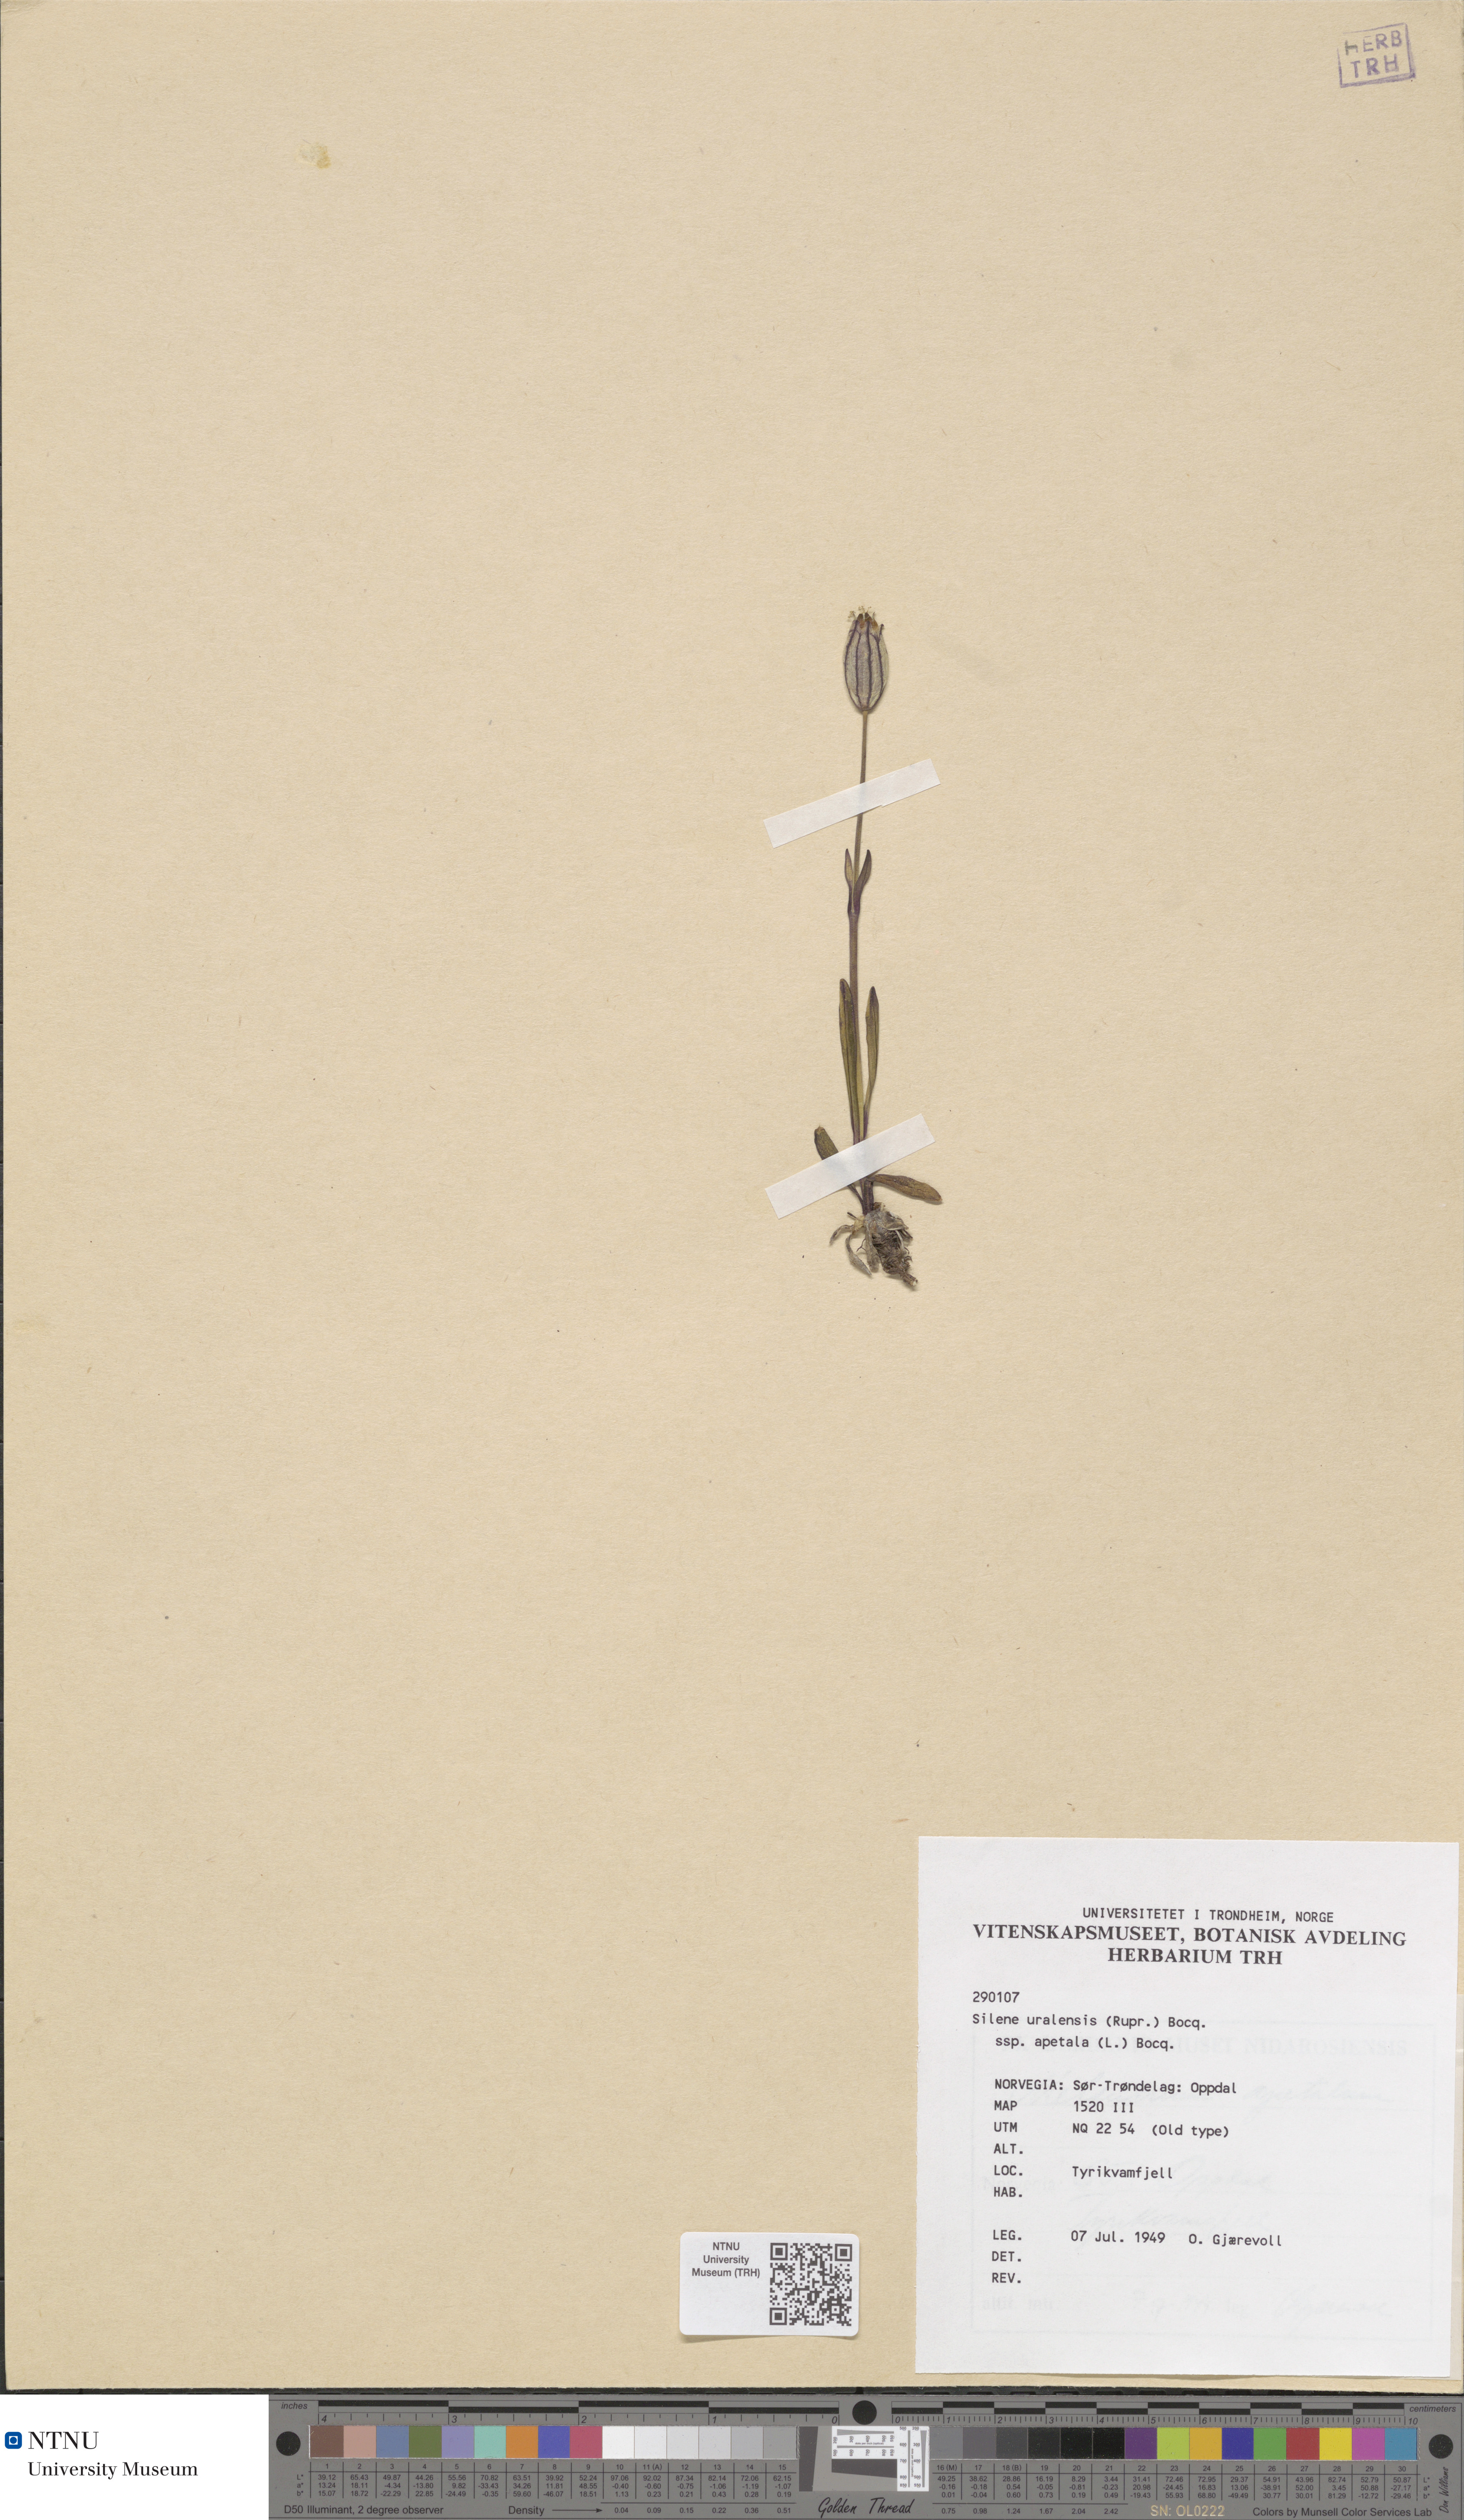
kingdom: Plantae
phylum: Tracheophyta
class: Magnoliopsida
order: Caryophyllales
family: Caryophyllaceae
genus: Silene
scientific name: Silene wahlbergella
